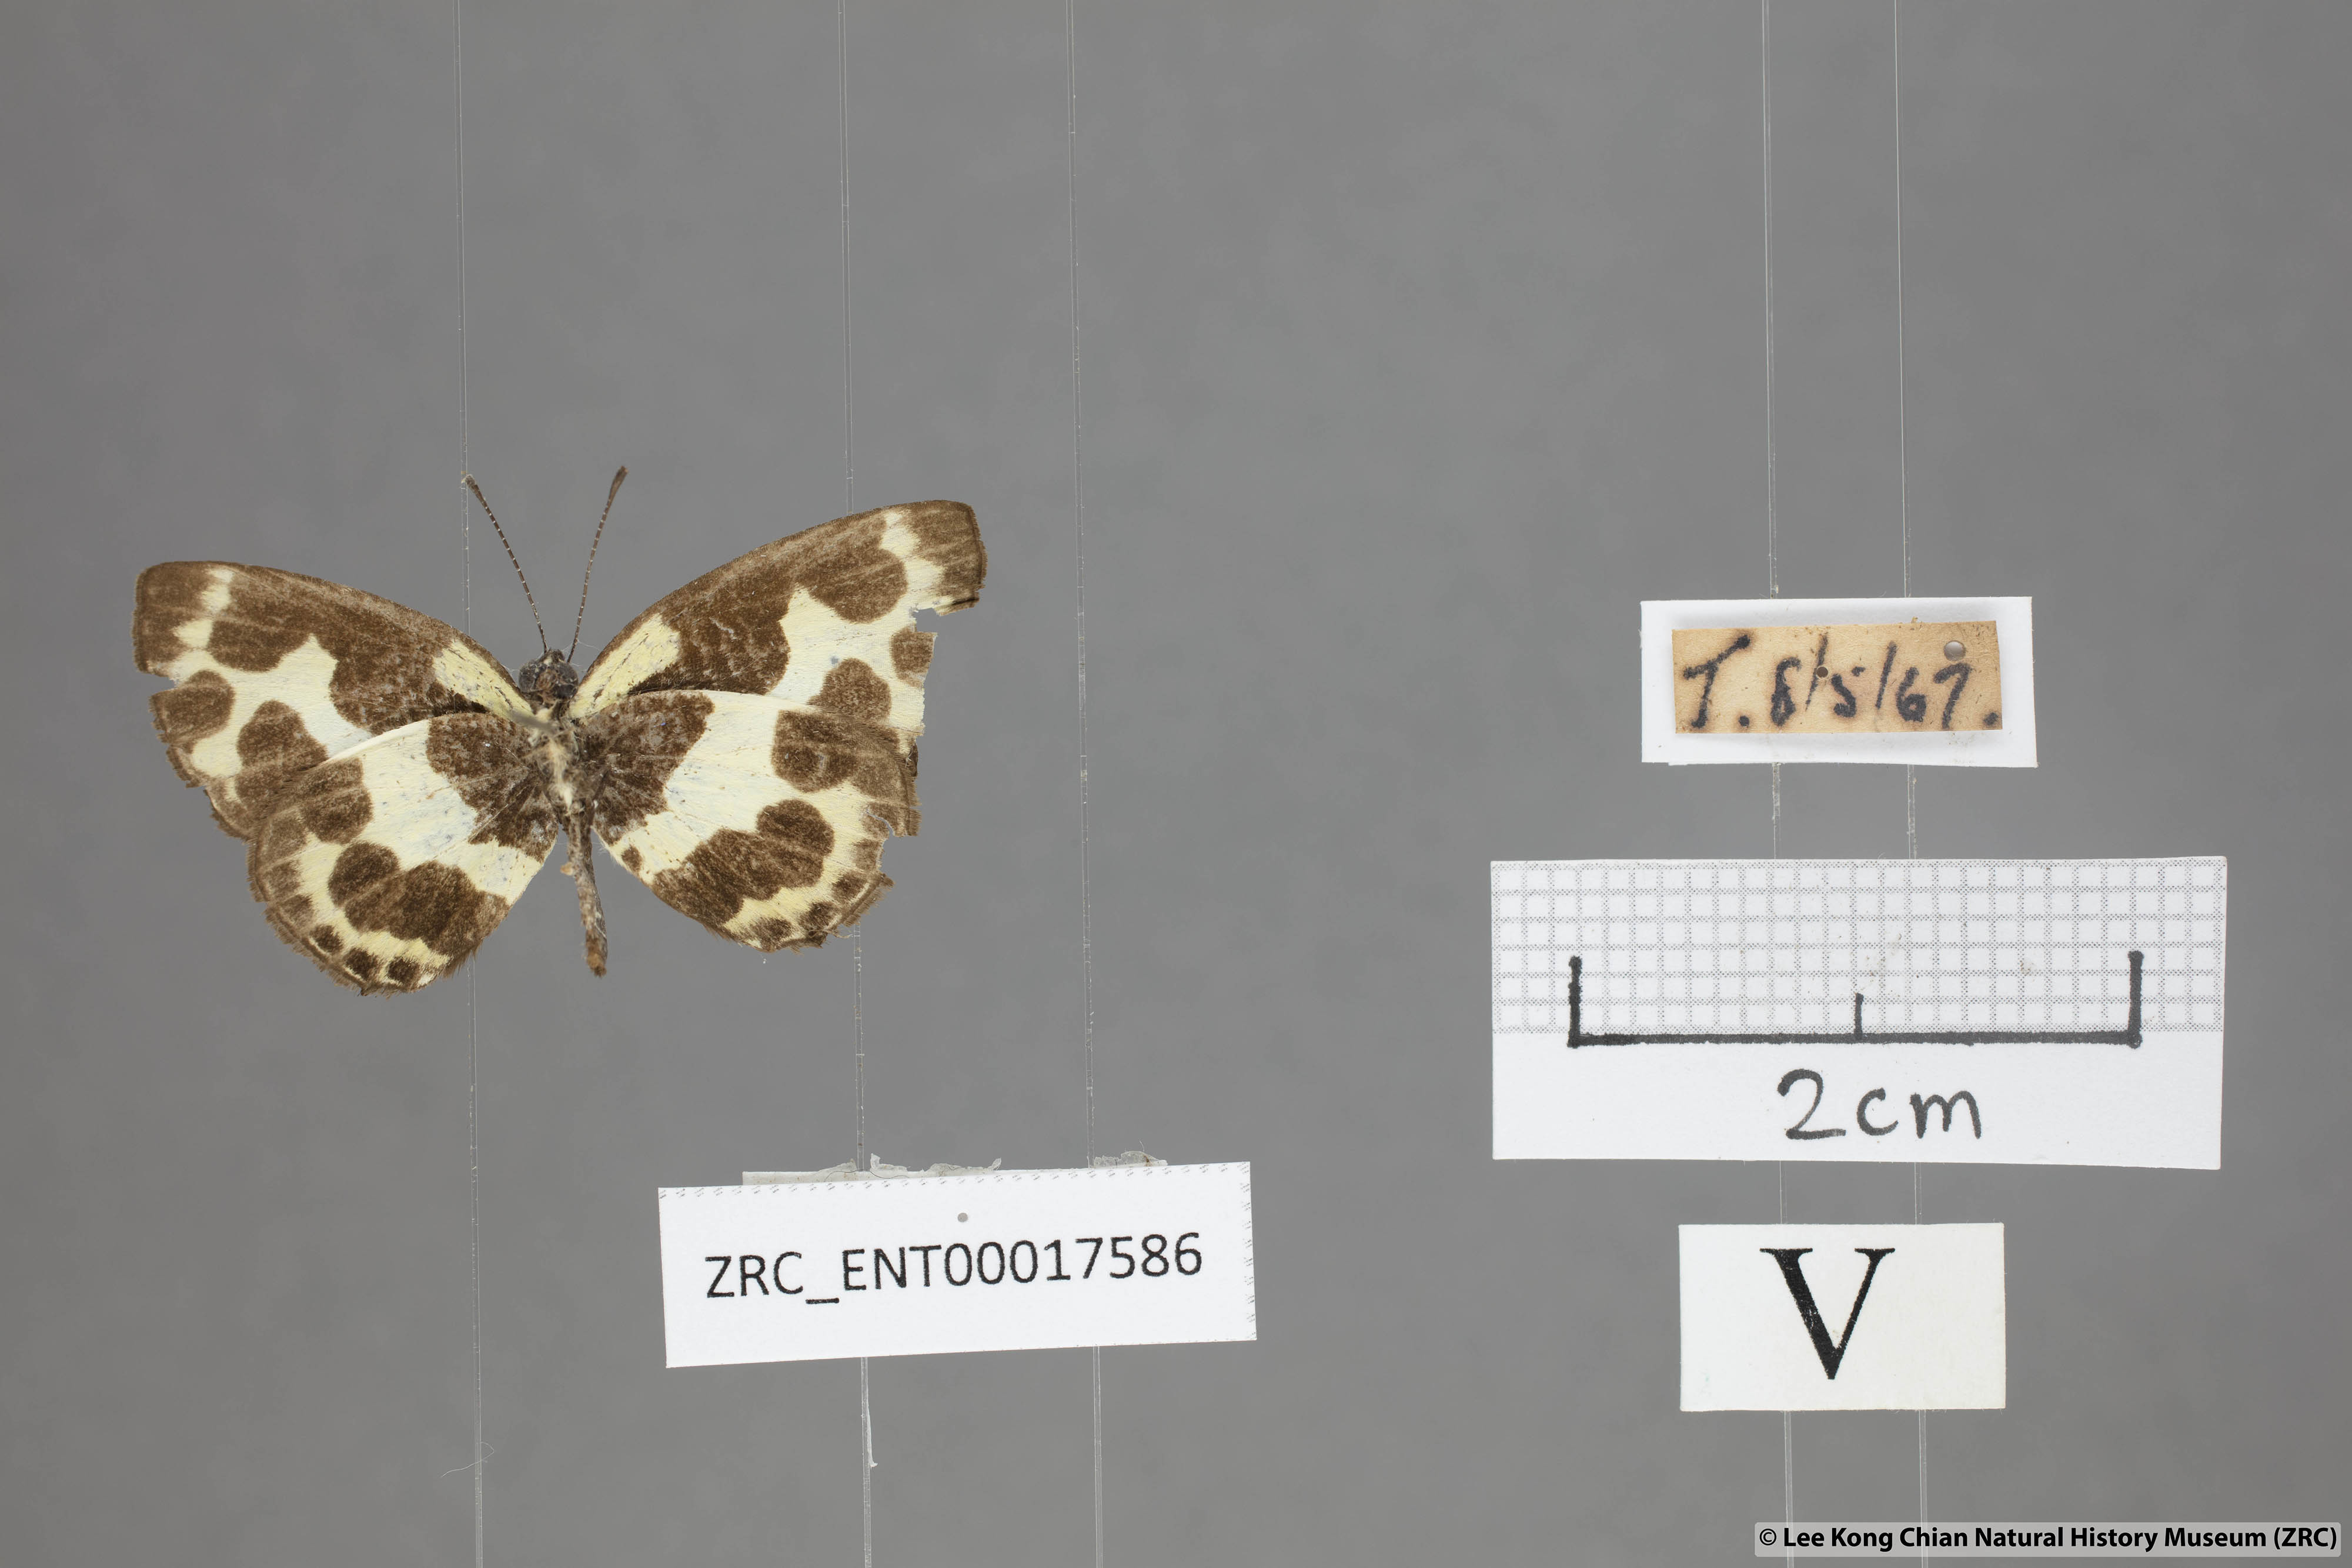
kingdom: Animalia
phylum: Arthropoda
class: Insecta
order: Lepidoptera
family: Lycaenidae
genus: Caleta
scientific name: Caleta elna
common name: Elbowed pierrot
